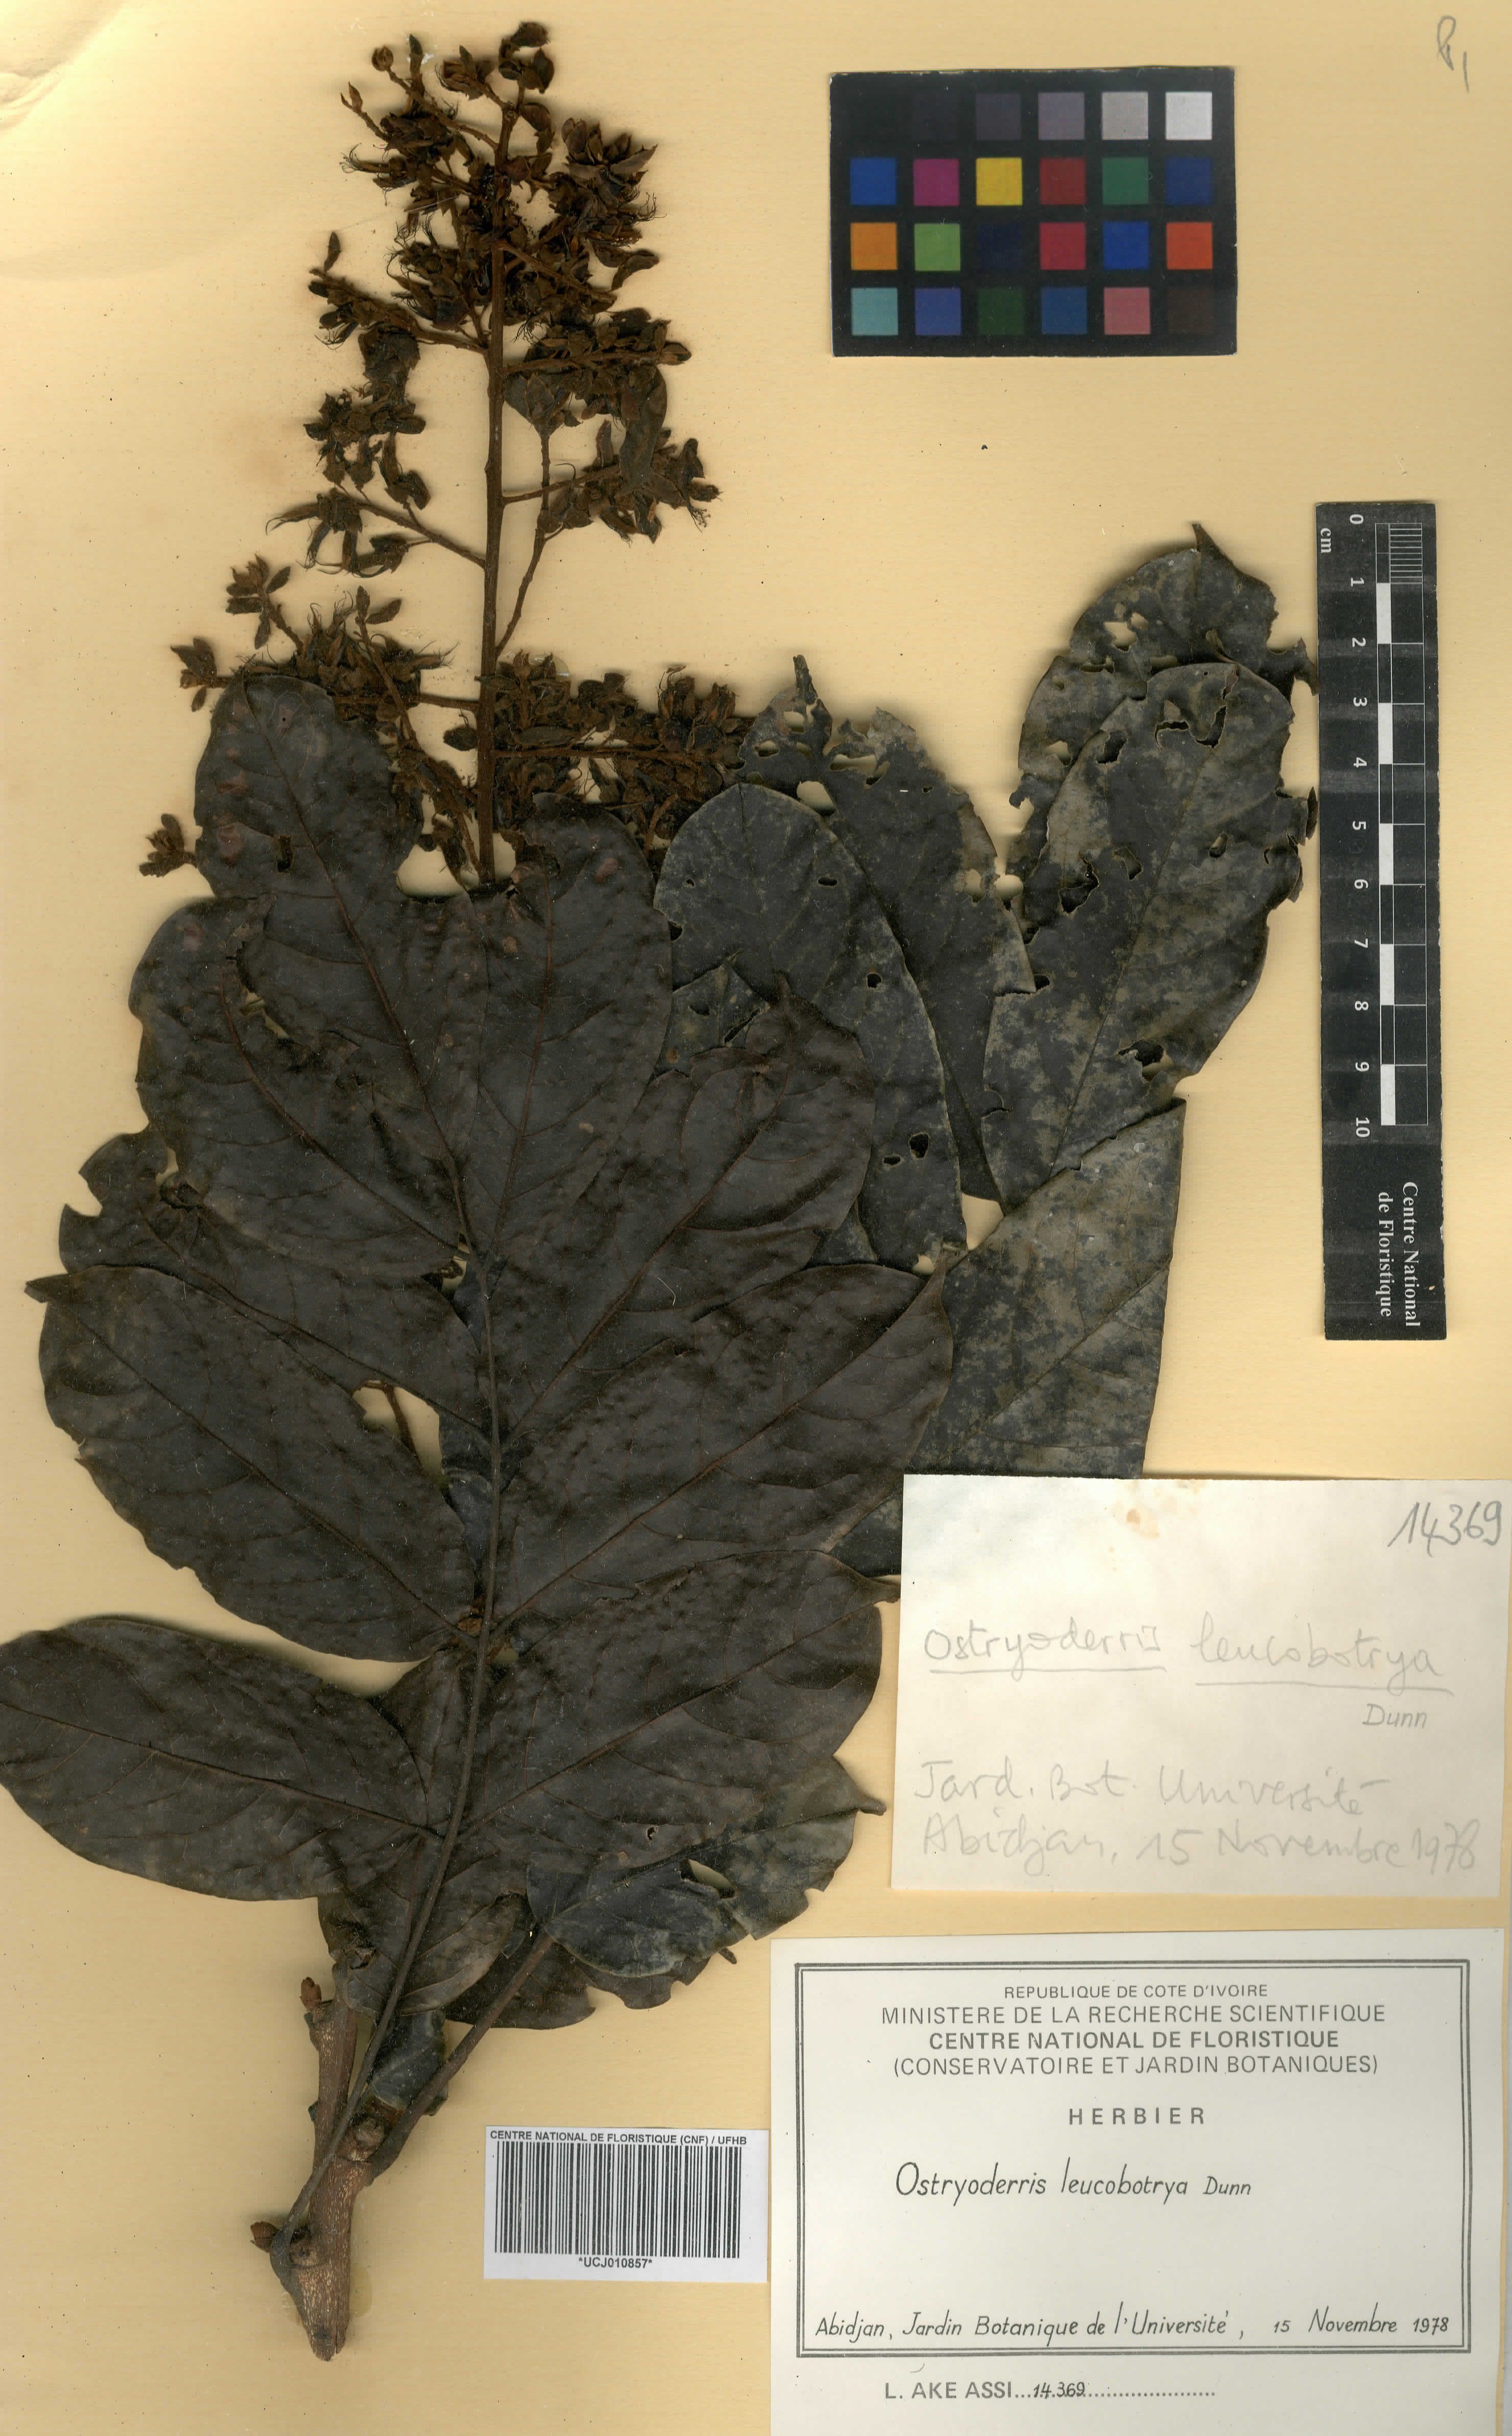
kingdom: Plantae
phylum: Tracheophyta
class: Magnoliopsida
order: Fabales
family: Fabaceae
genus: Aganope
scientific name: Aganope leucobotrya
